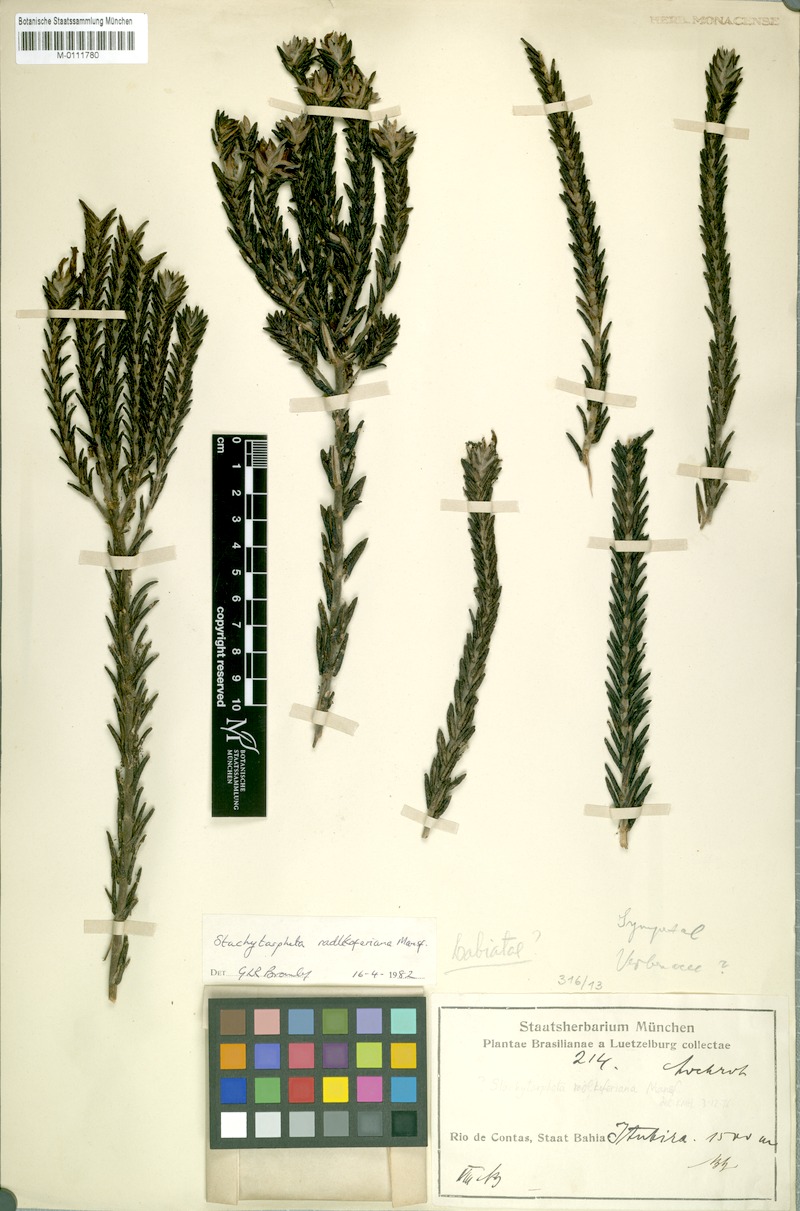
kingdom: Plantae
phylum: Tracheophyta
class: Magnoliopsida
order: Lamiales
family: Verbenaceae
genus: Stachytarpheta
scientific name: Stachytarpheta radlkoferiana
